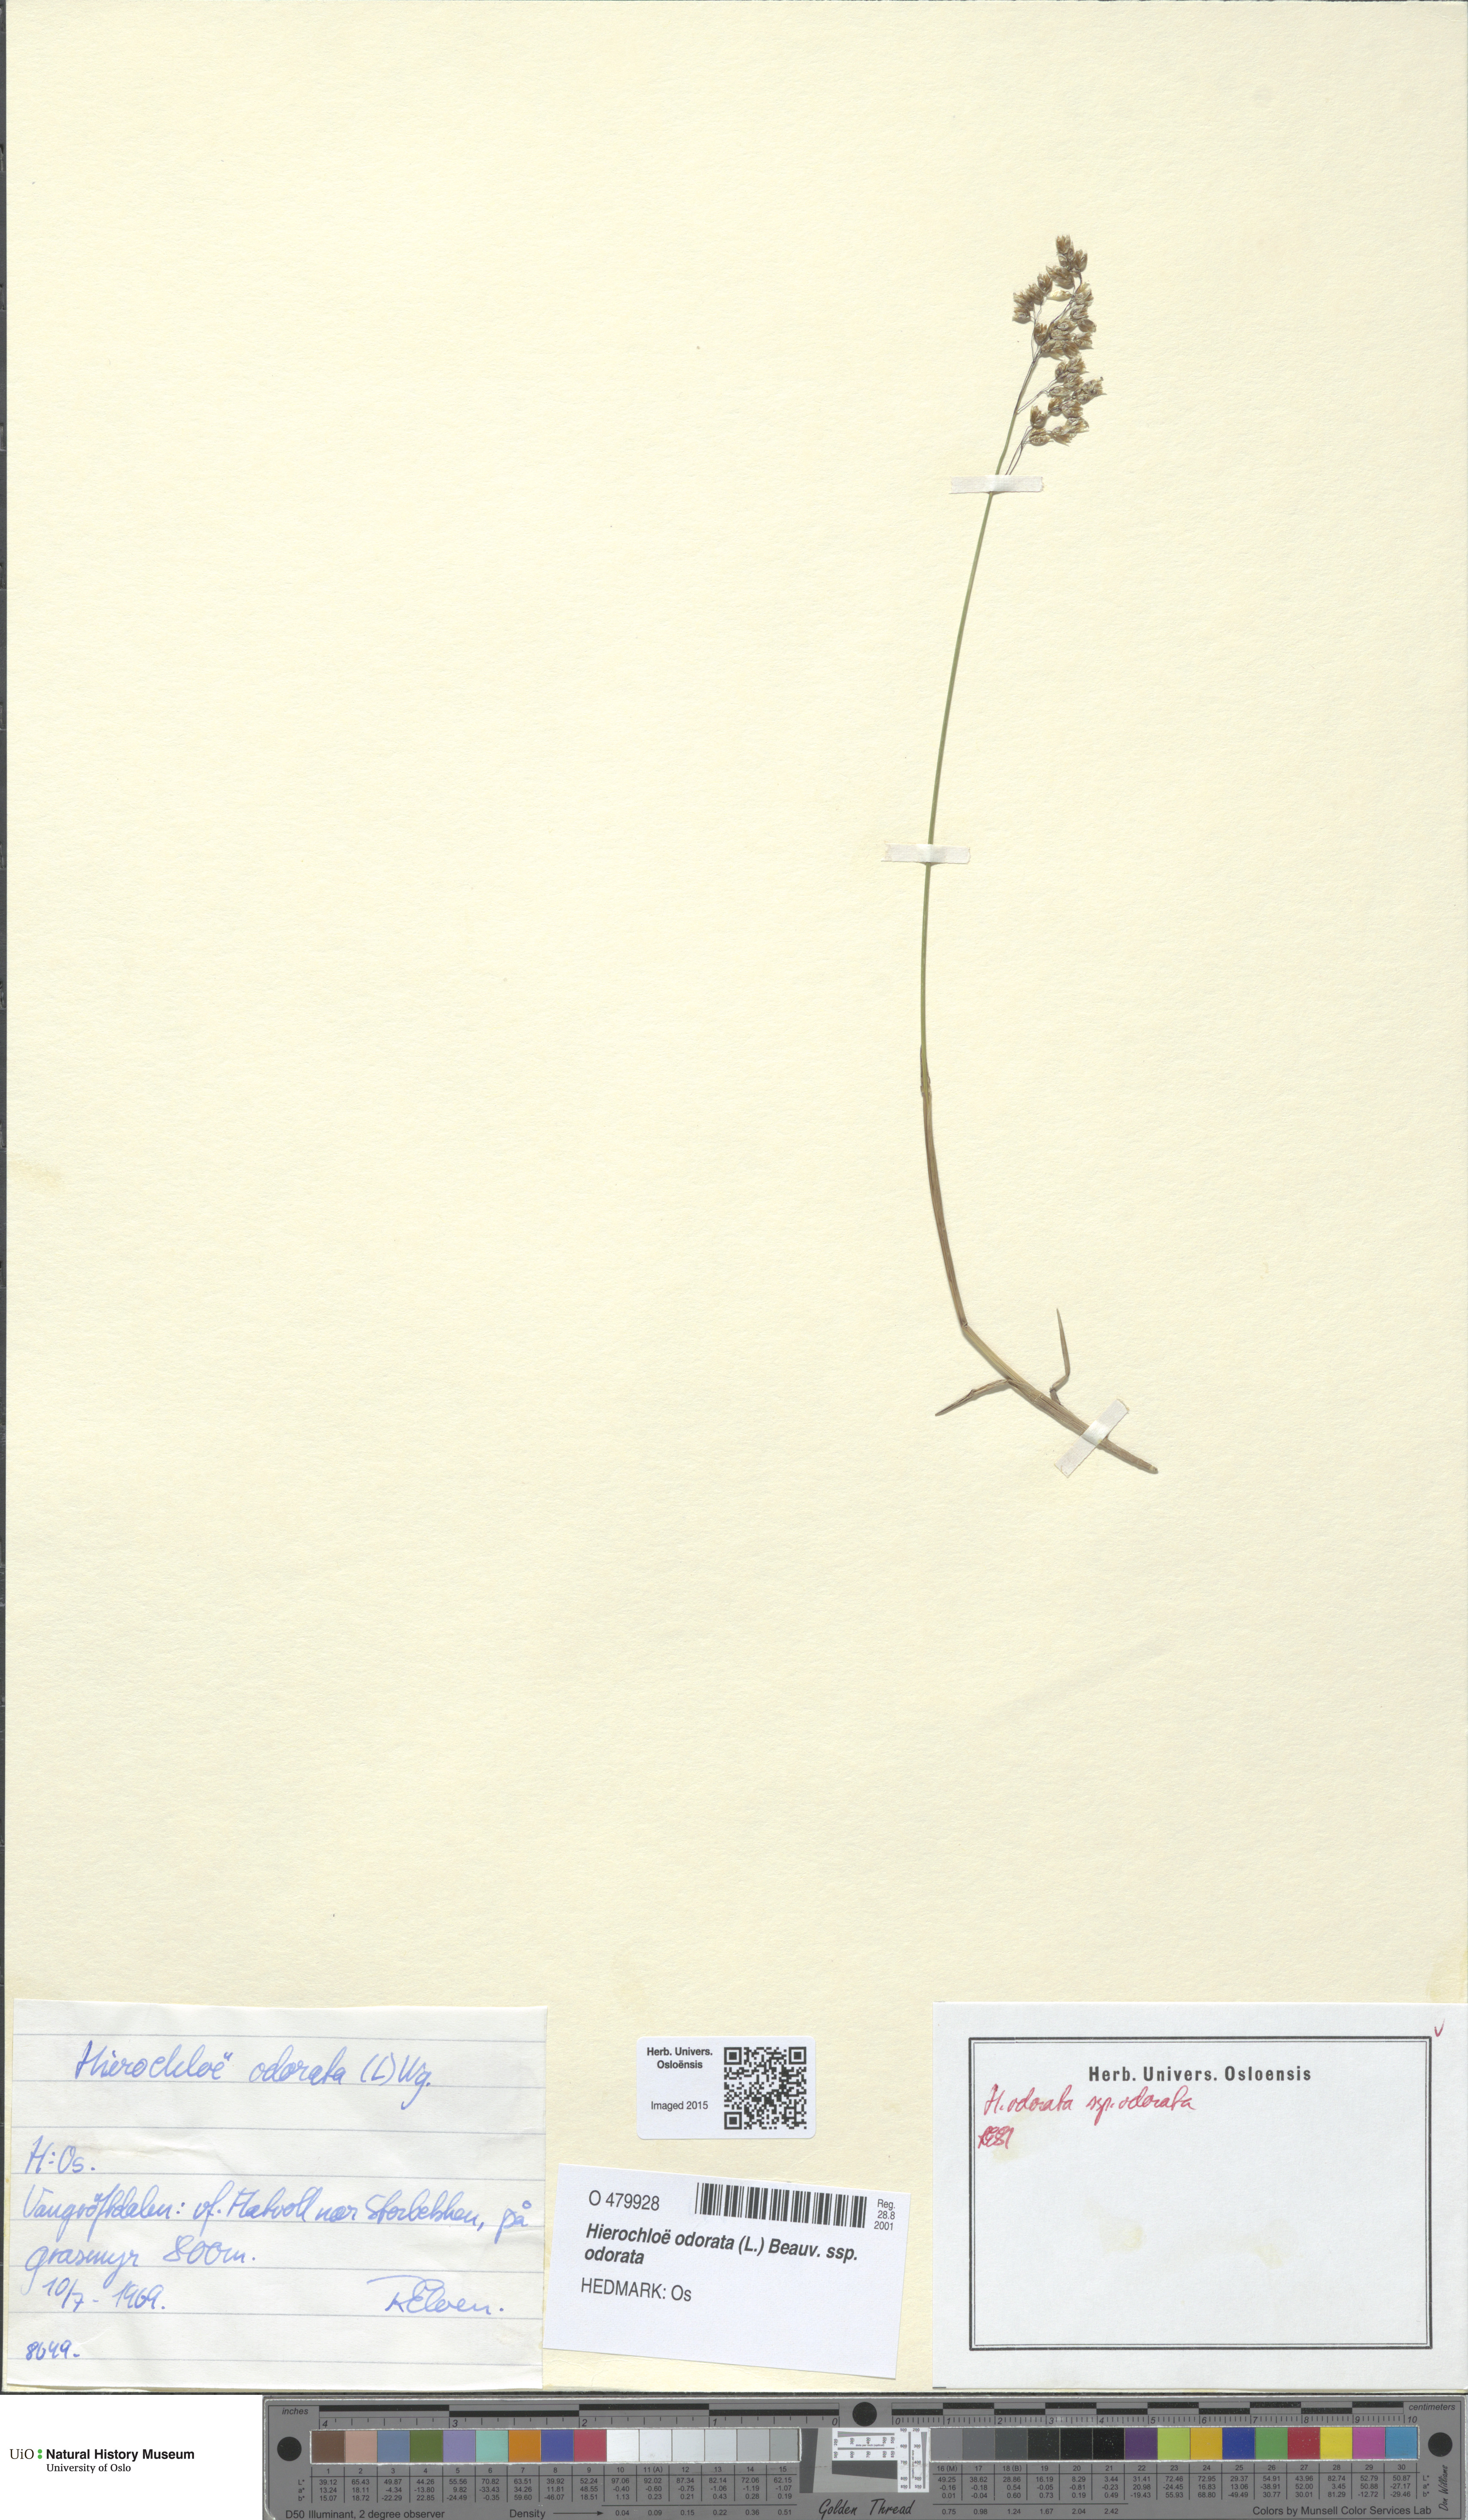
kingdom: Plantae
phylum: Tracheophyta
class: Liliopsida
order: Poales
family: Poaceae
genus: Anthoxanthum
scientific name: Anthoxanthum nitens
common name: Holy grass
